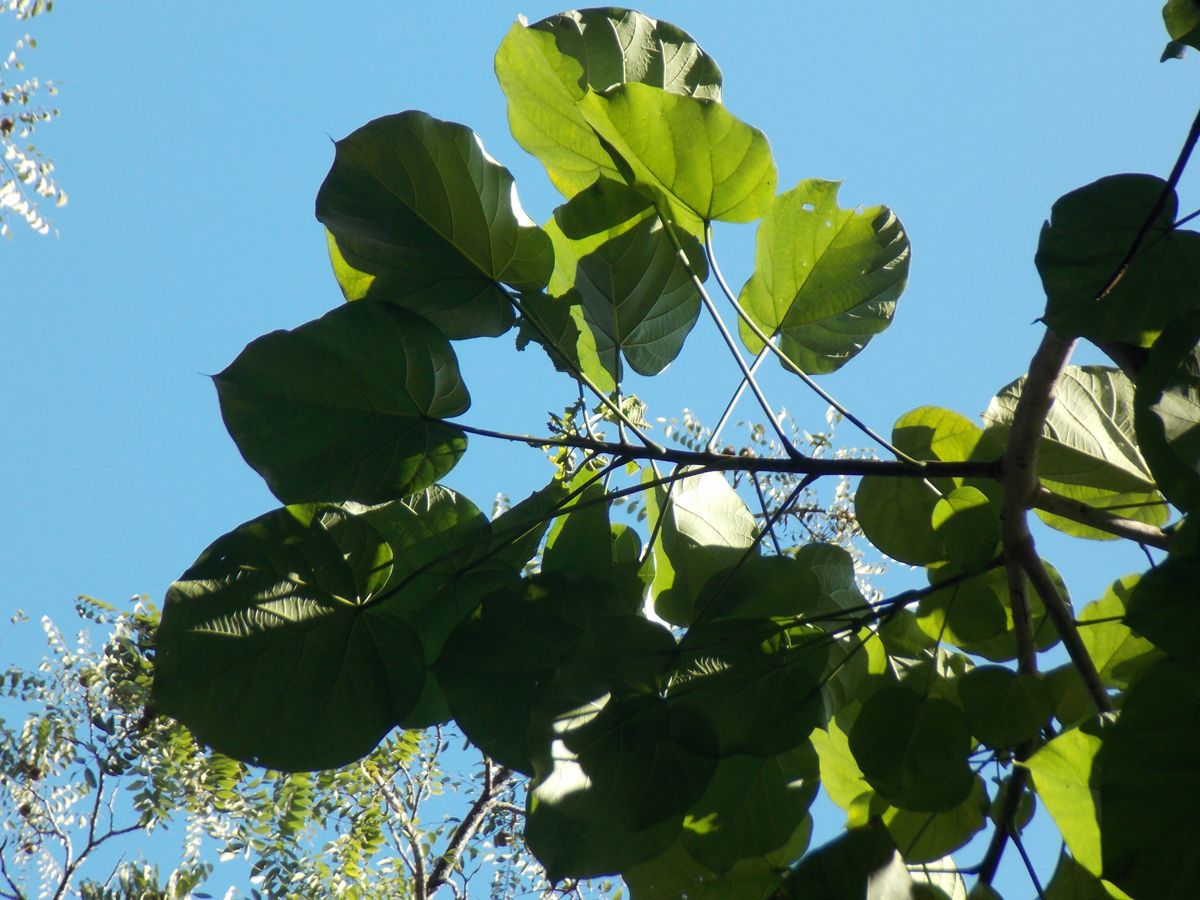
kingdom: Plantae
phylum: Tracheophyta
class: Magnoliopsida
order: Malpighiales
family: Euphorbiaceae
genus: Omphalea
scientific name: Omphalea oleifera
